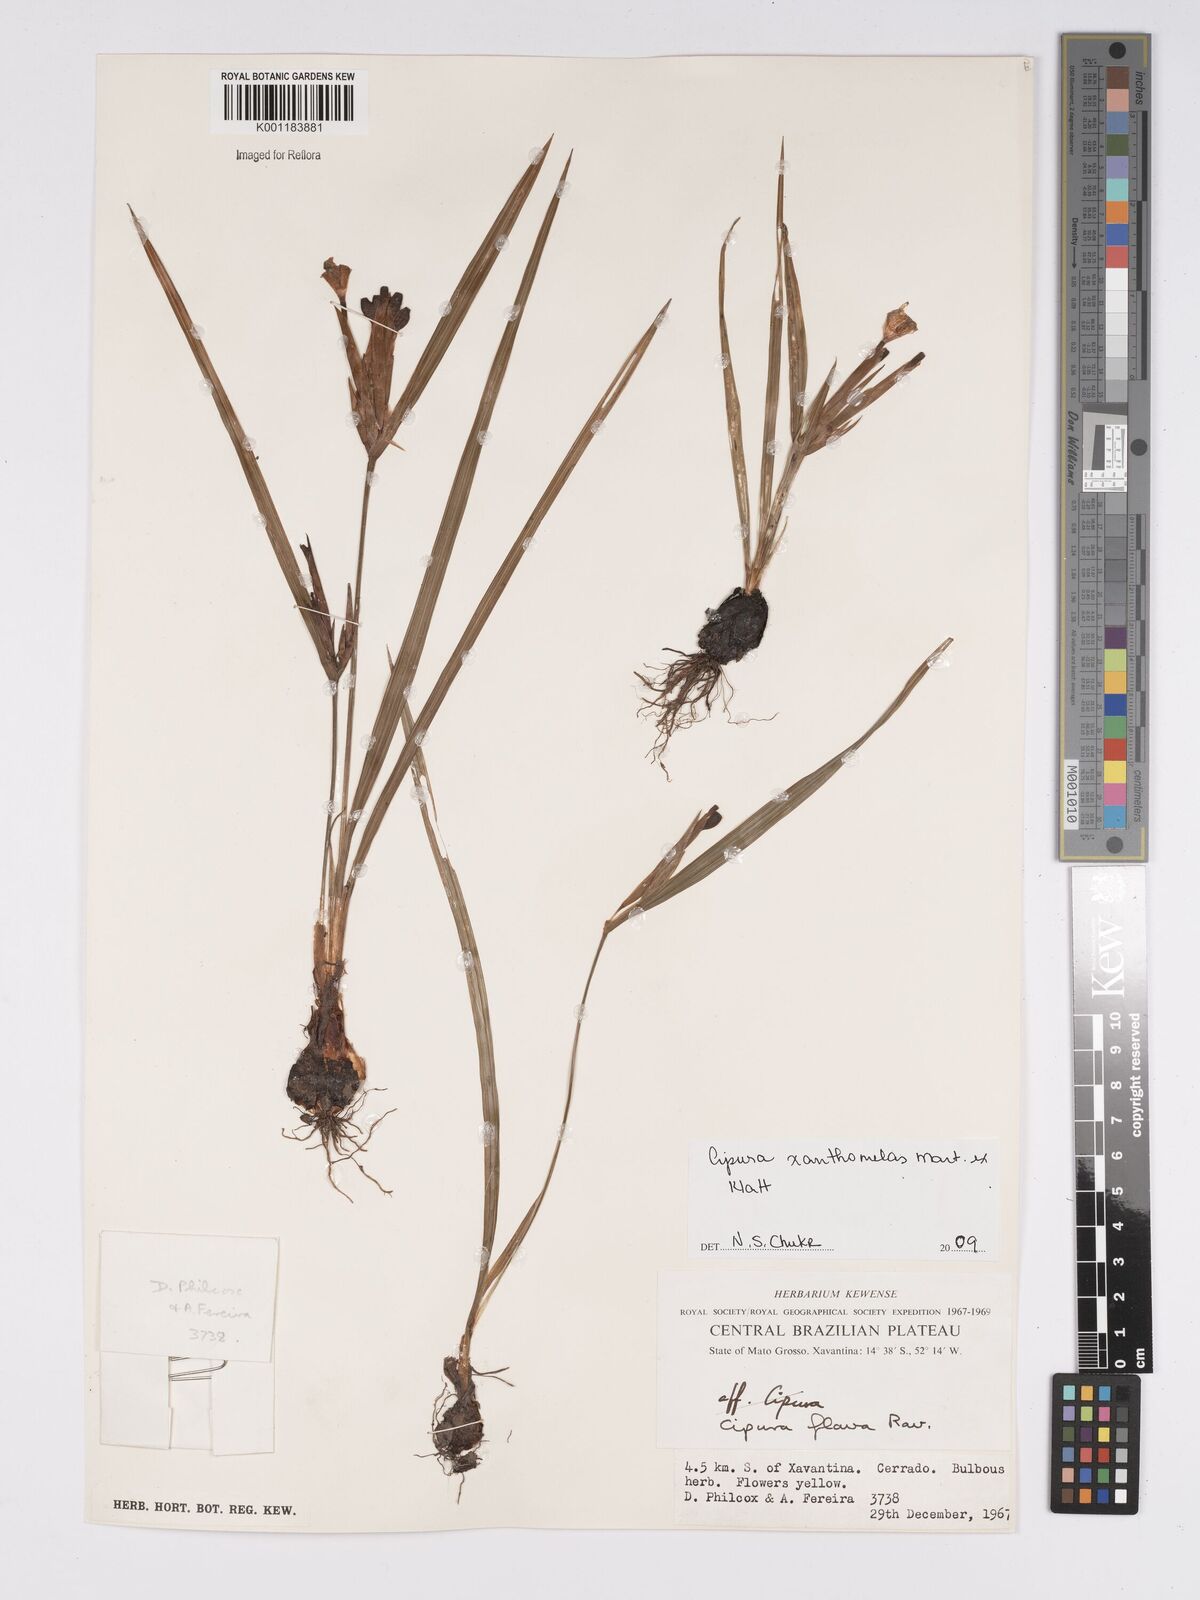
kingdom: Plantae
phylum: Tracheophyta
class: Liliopsida
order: Asparagales
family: Iridaceae
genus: Cipura
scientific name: Cipura xanthomelas
